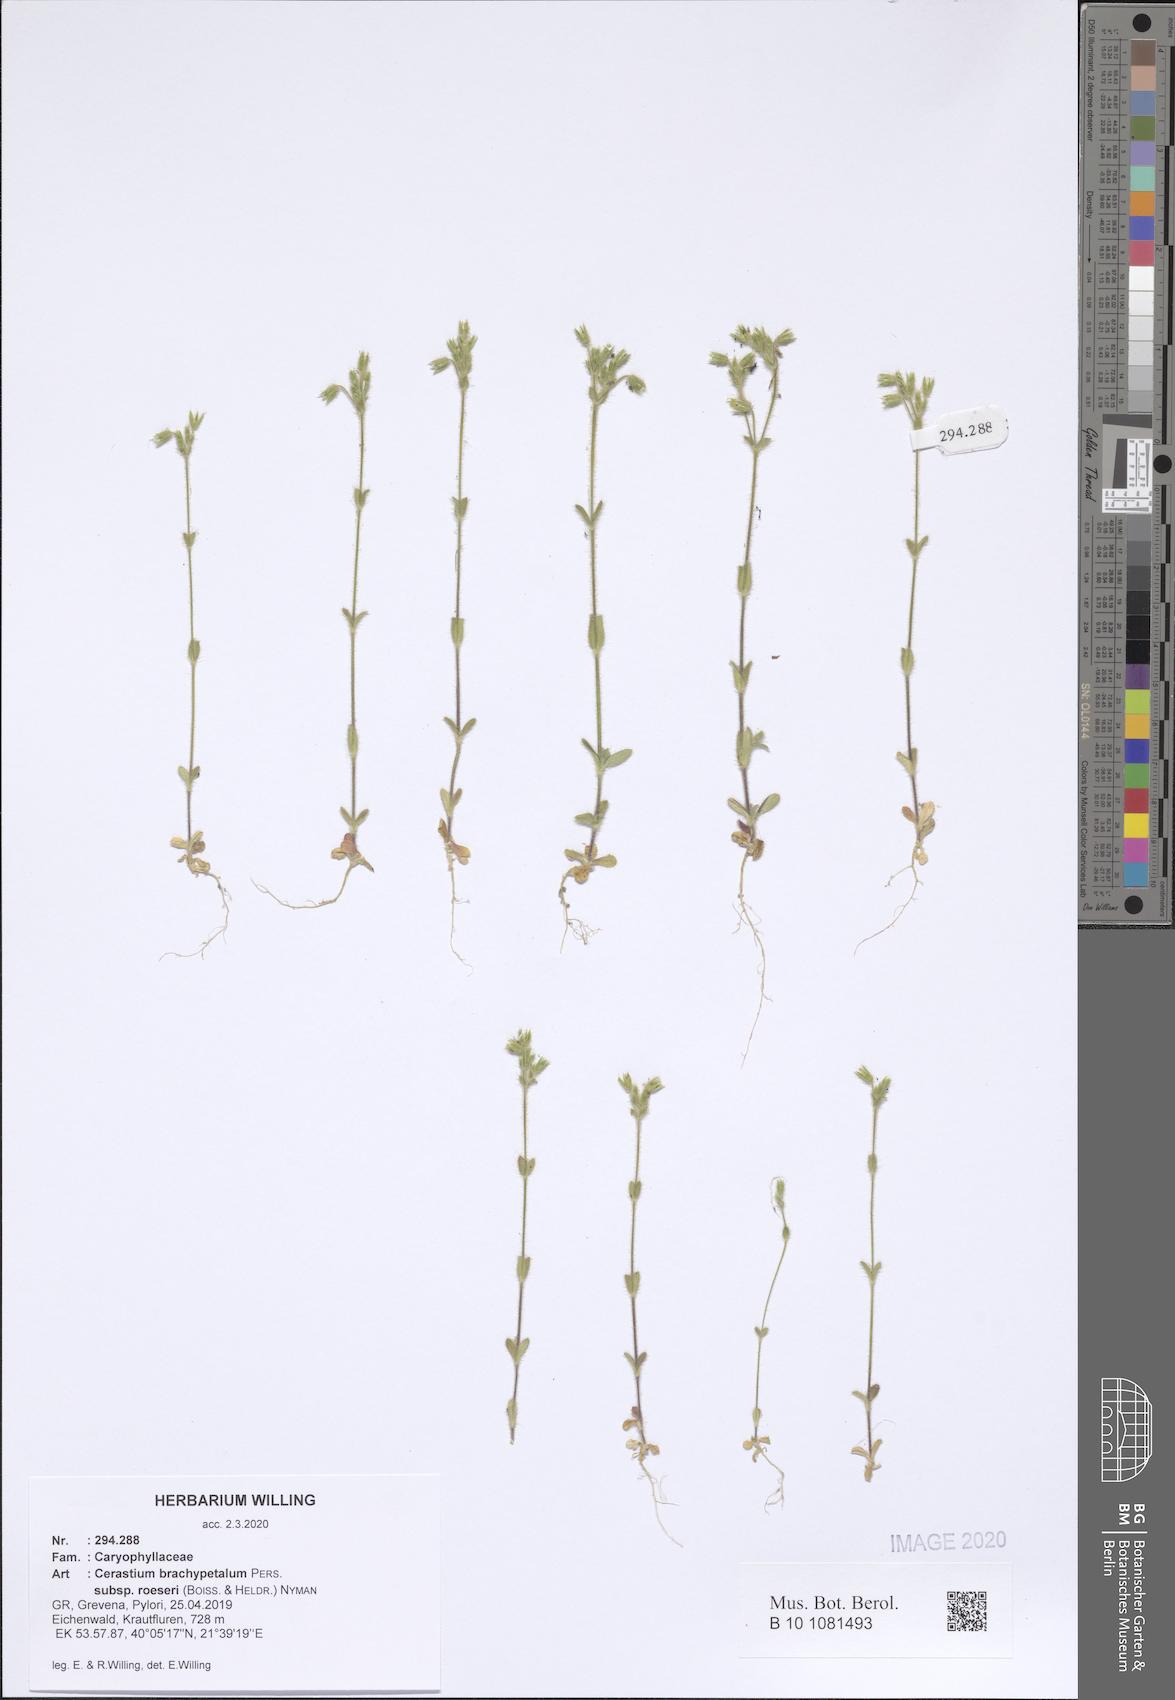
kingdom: Plantae
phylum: Tracheophyta
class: Magnoliopsida
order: Caryophyllales
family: Caryophyllaceae
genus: Cerastium
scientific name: Cerastium brachypetalum
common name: Grey mouse-ear
